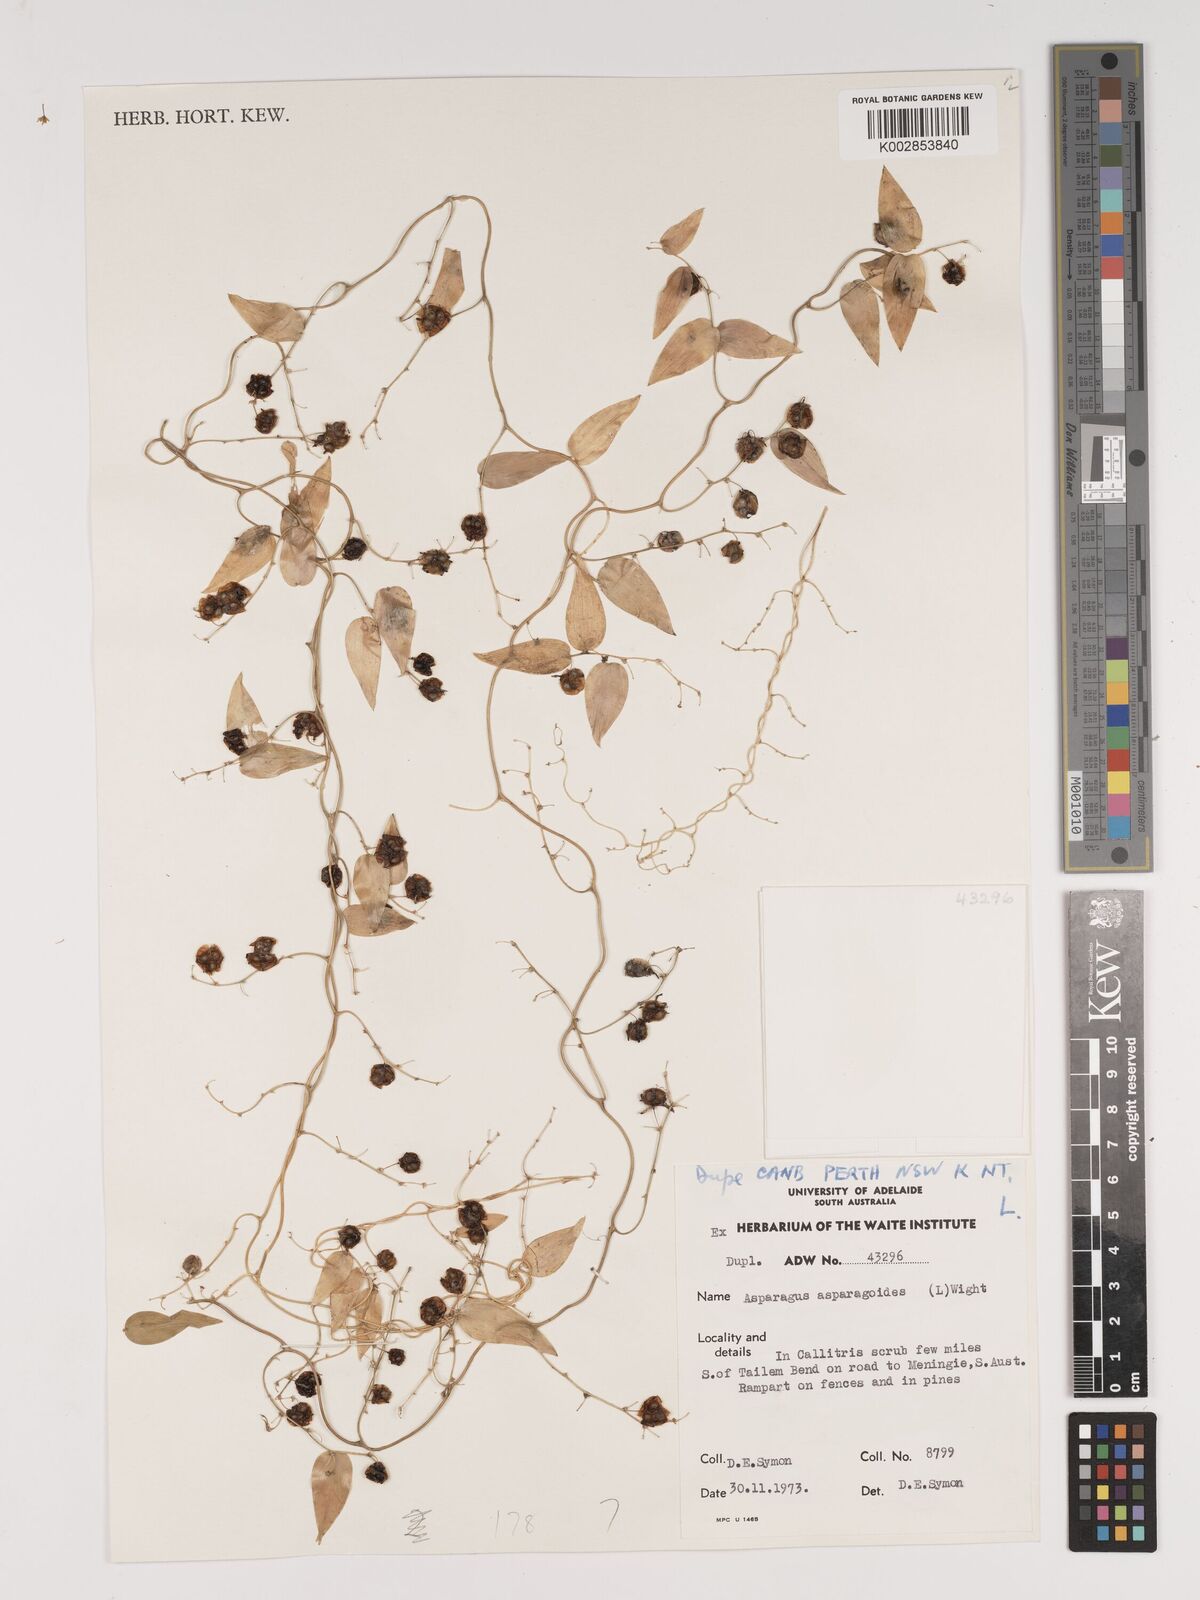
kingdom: Plantae
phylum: Tracheophyta
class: Liliopsida
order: Asparagales
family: Asparagaceae
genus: Asparagus
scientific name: Asparagus asparagoides
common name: African asparagus fern
